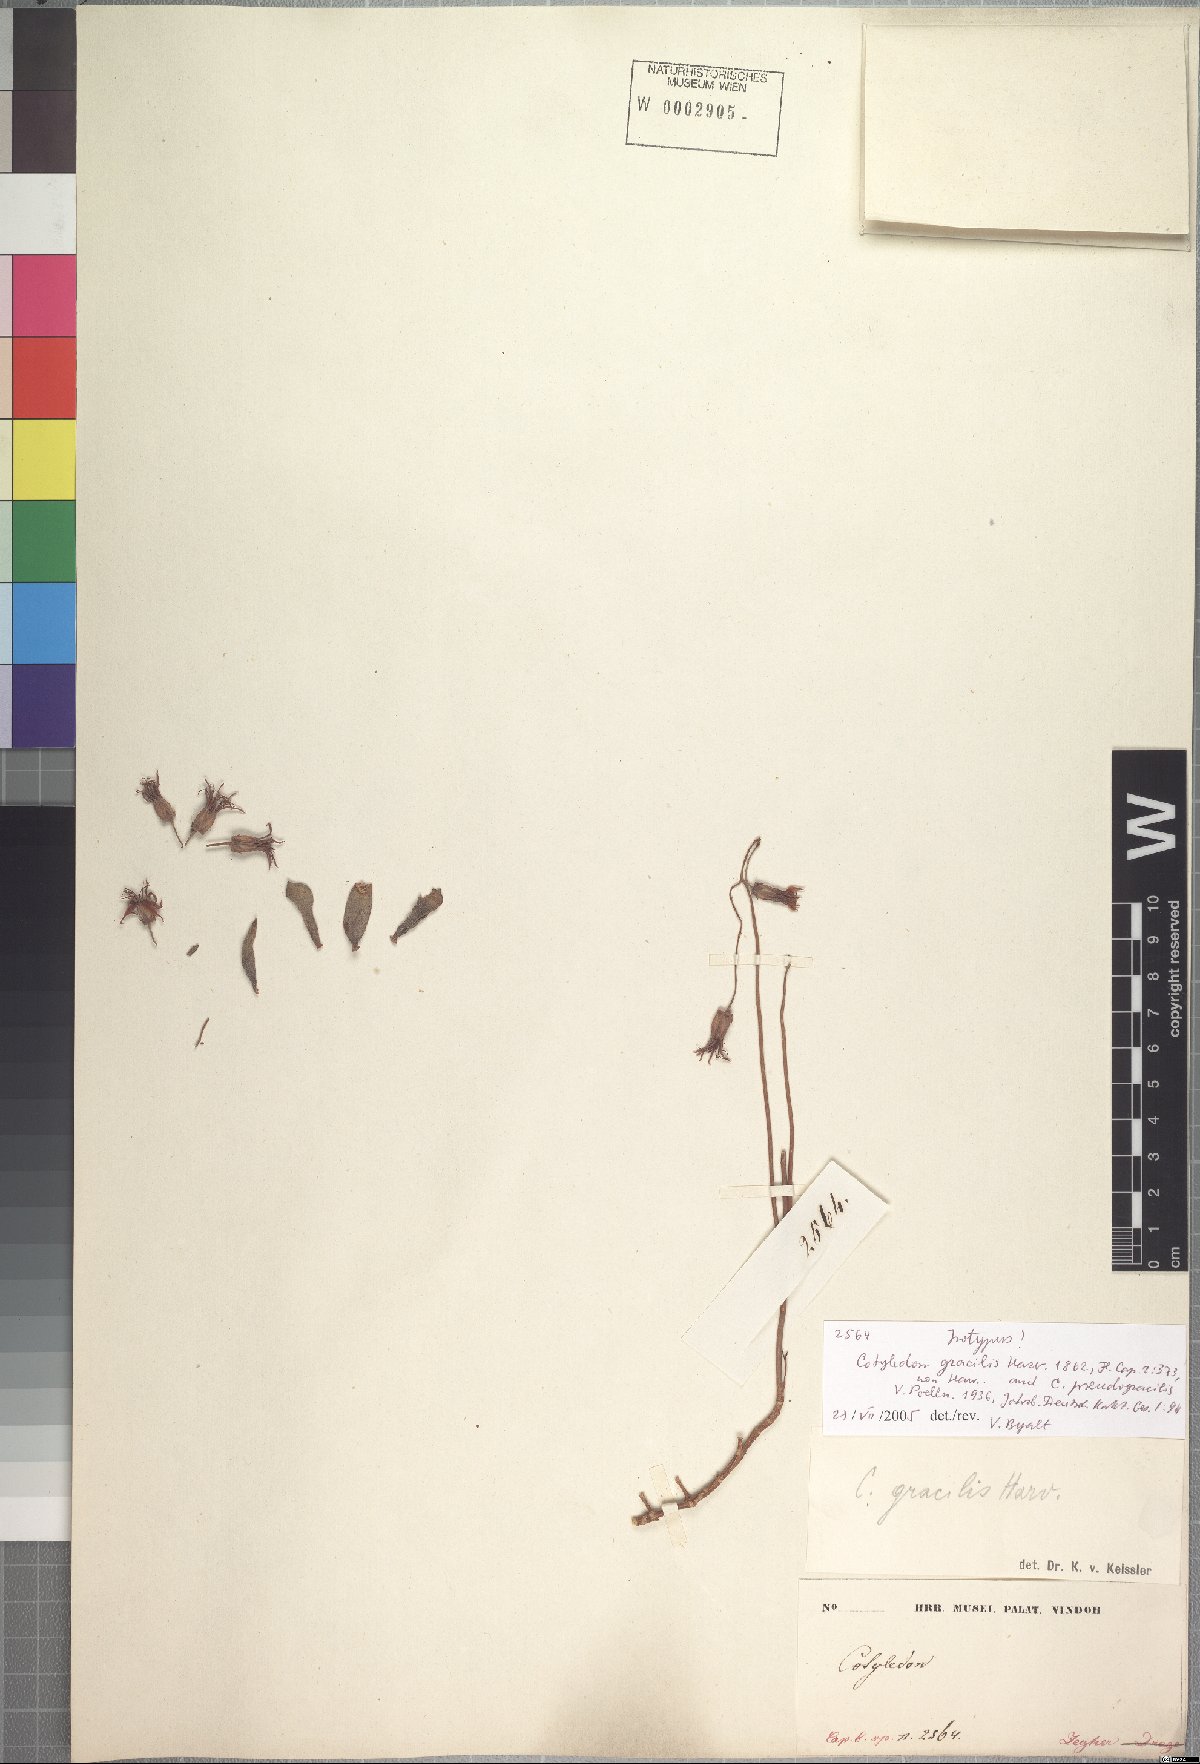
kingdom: Plantae
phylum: Tracheophyta
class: Magnoliopsida
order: Saxifragales
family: Crassulaceae
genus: Cotyledon
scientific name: Cotyledon papillaris
